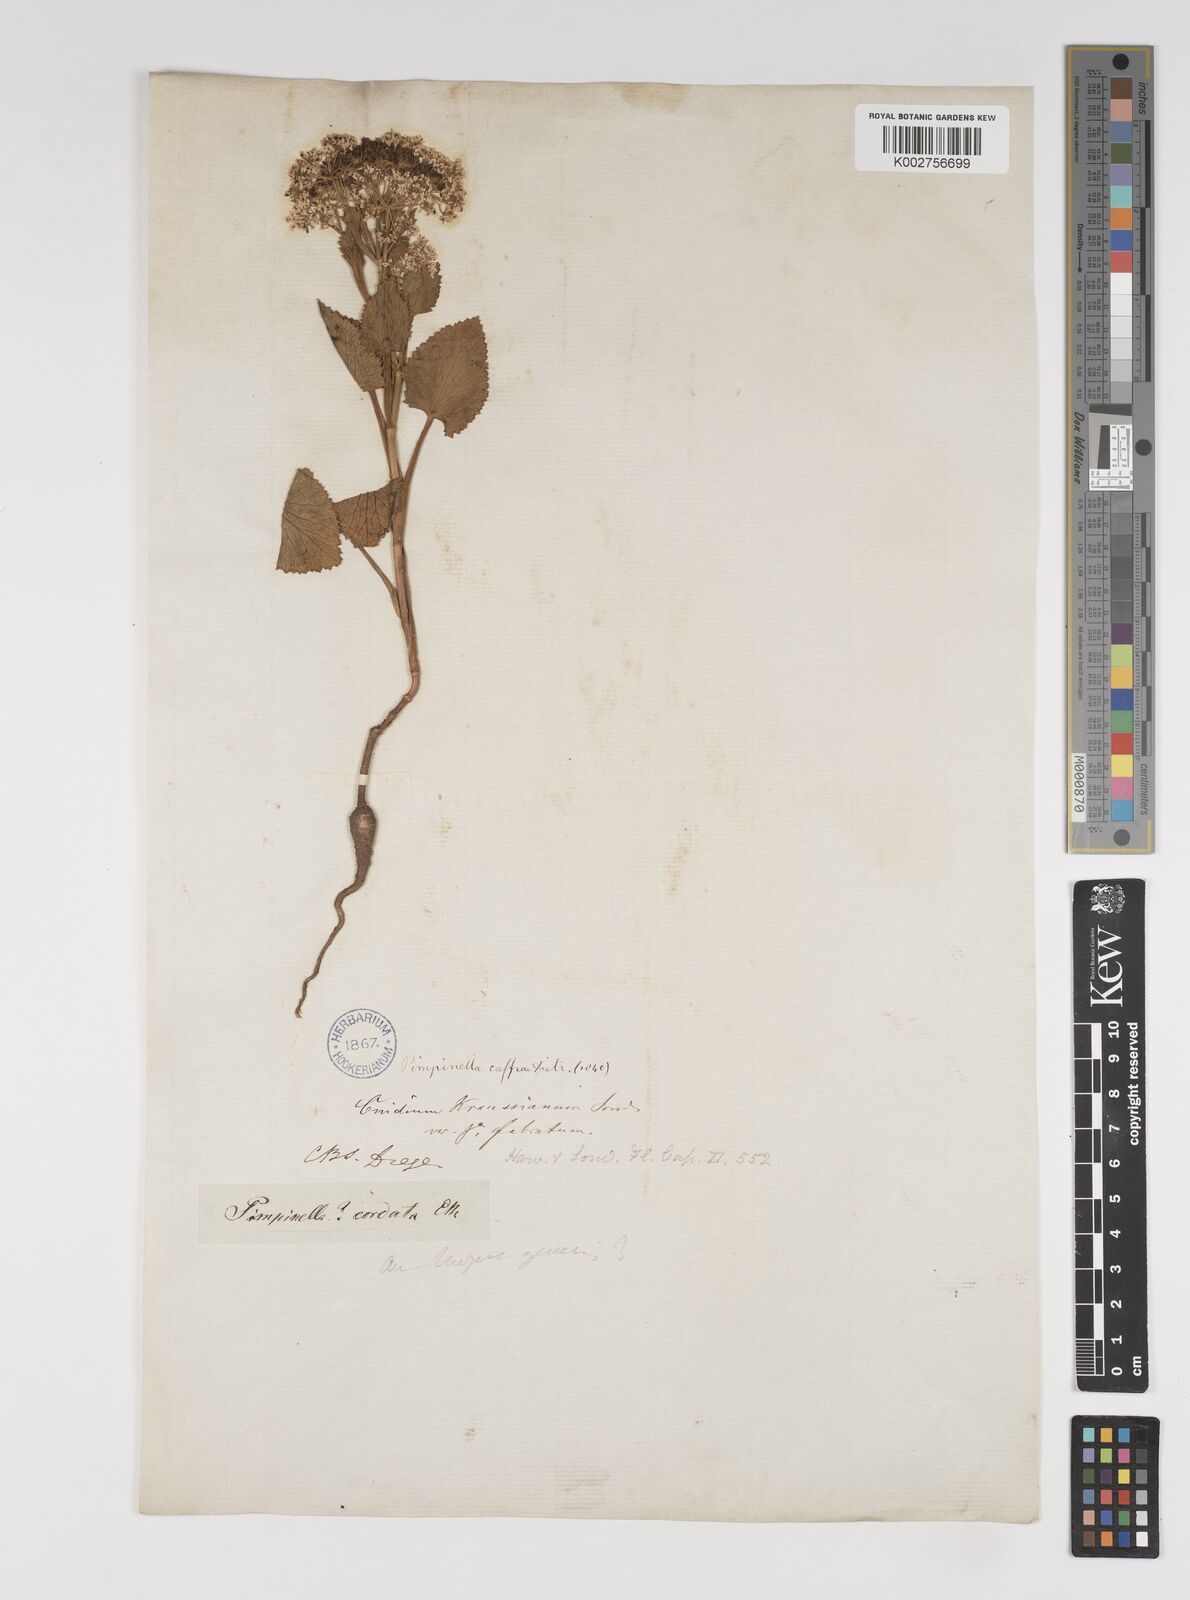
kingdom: Plantae
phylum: Tracheophyta
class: Magnoliopsida
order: Apiales
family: Apiaceae
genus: Pimpinella
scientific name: Pimpinella
